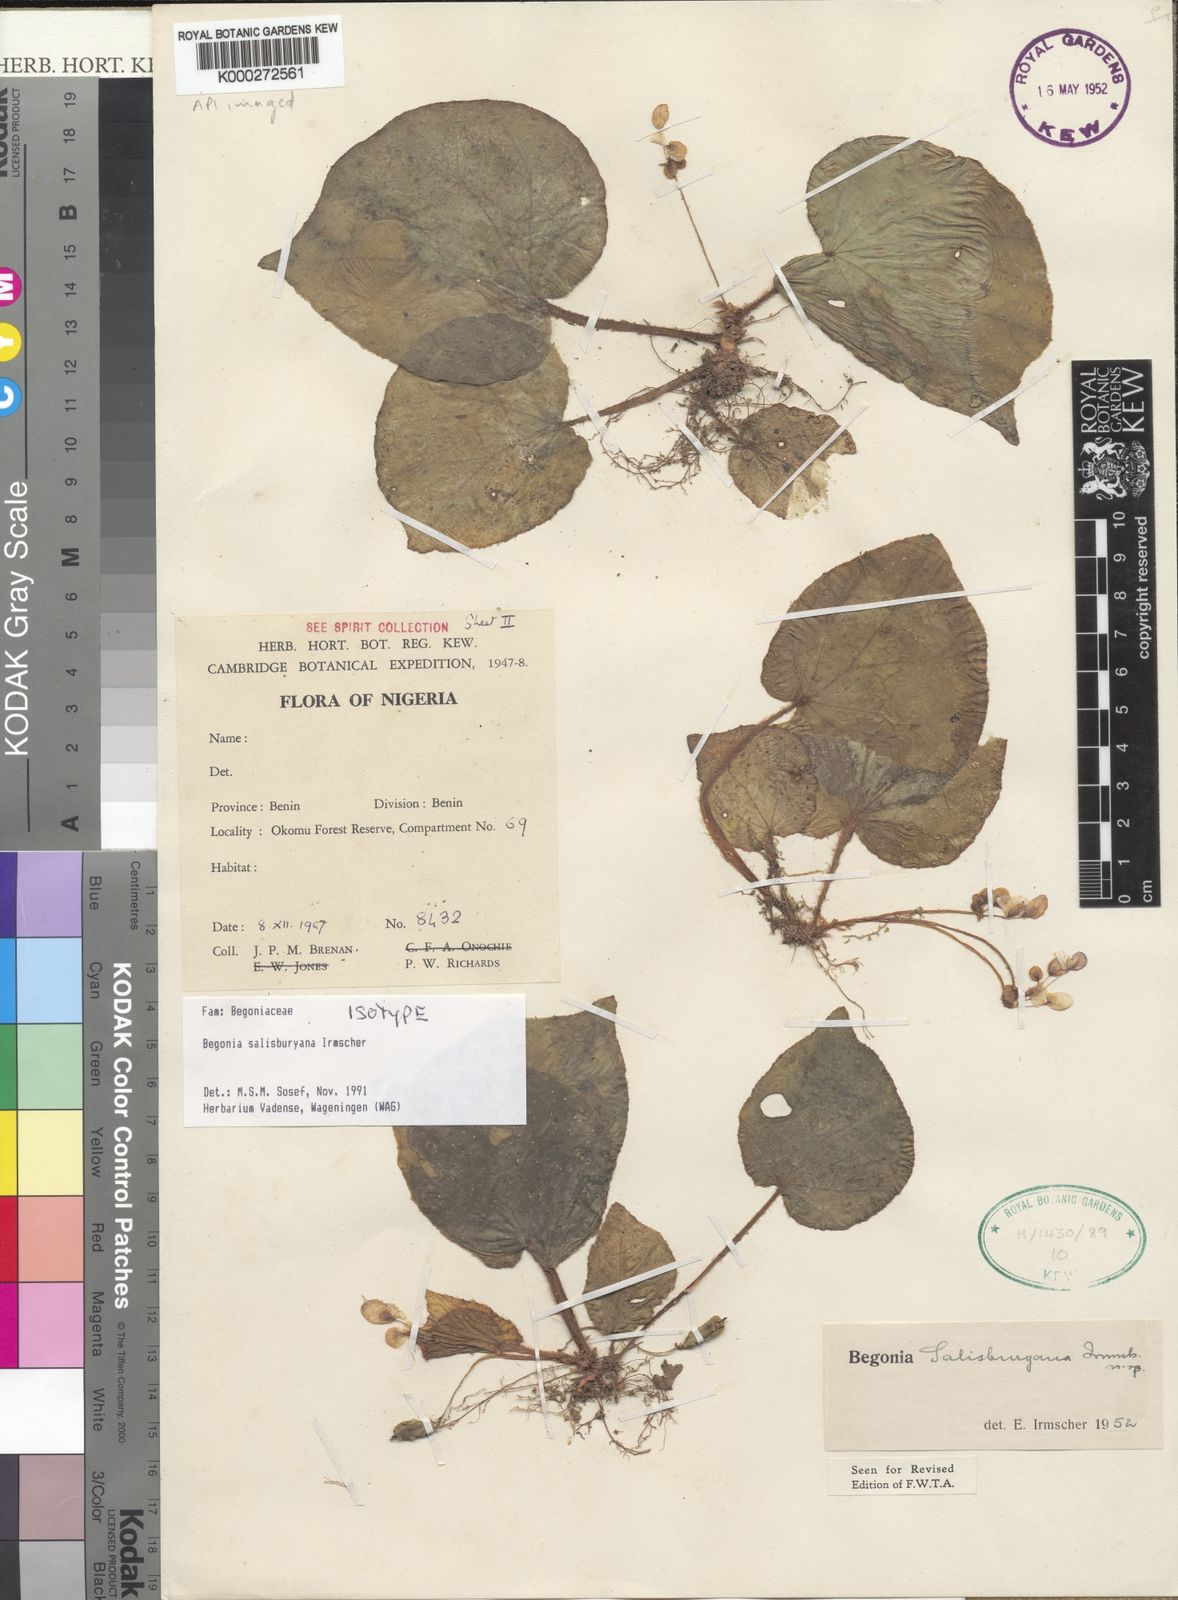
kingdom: Plantae
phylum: Tracheophyta
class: Magnoliopsida
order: Cucurbitales
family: Begoniaceae
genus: Begonia
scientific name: Begonia salisburyana
